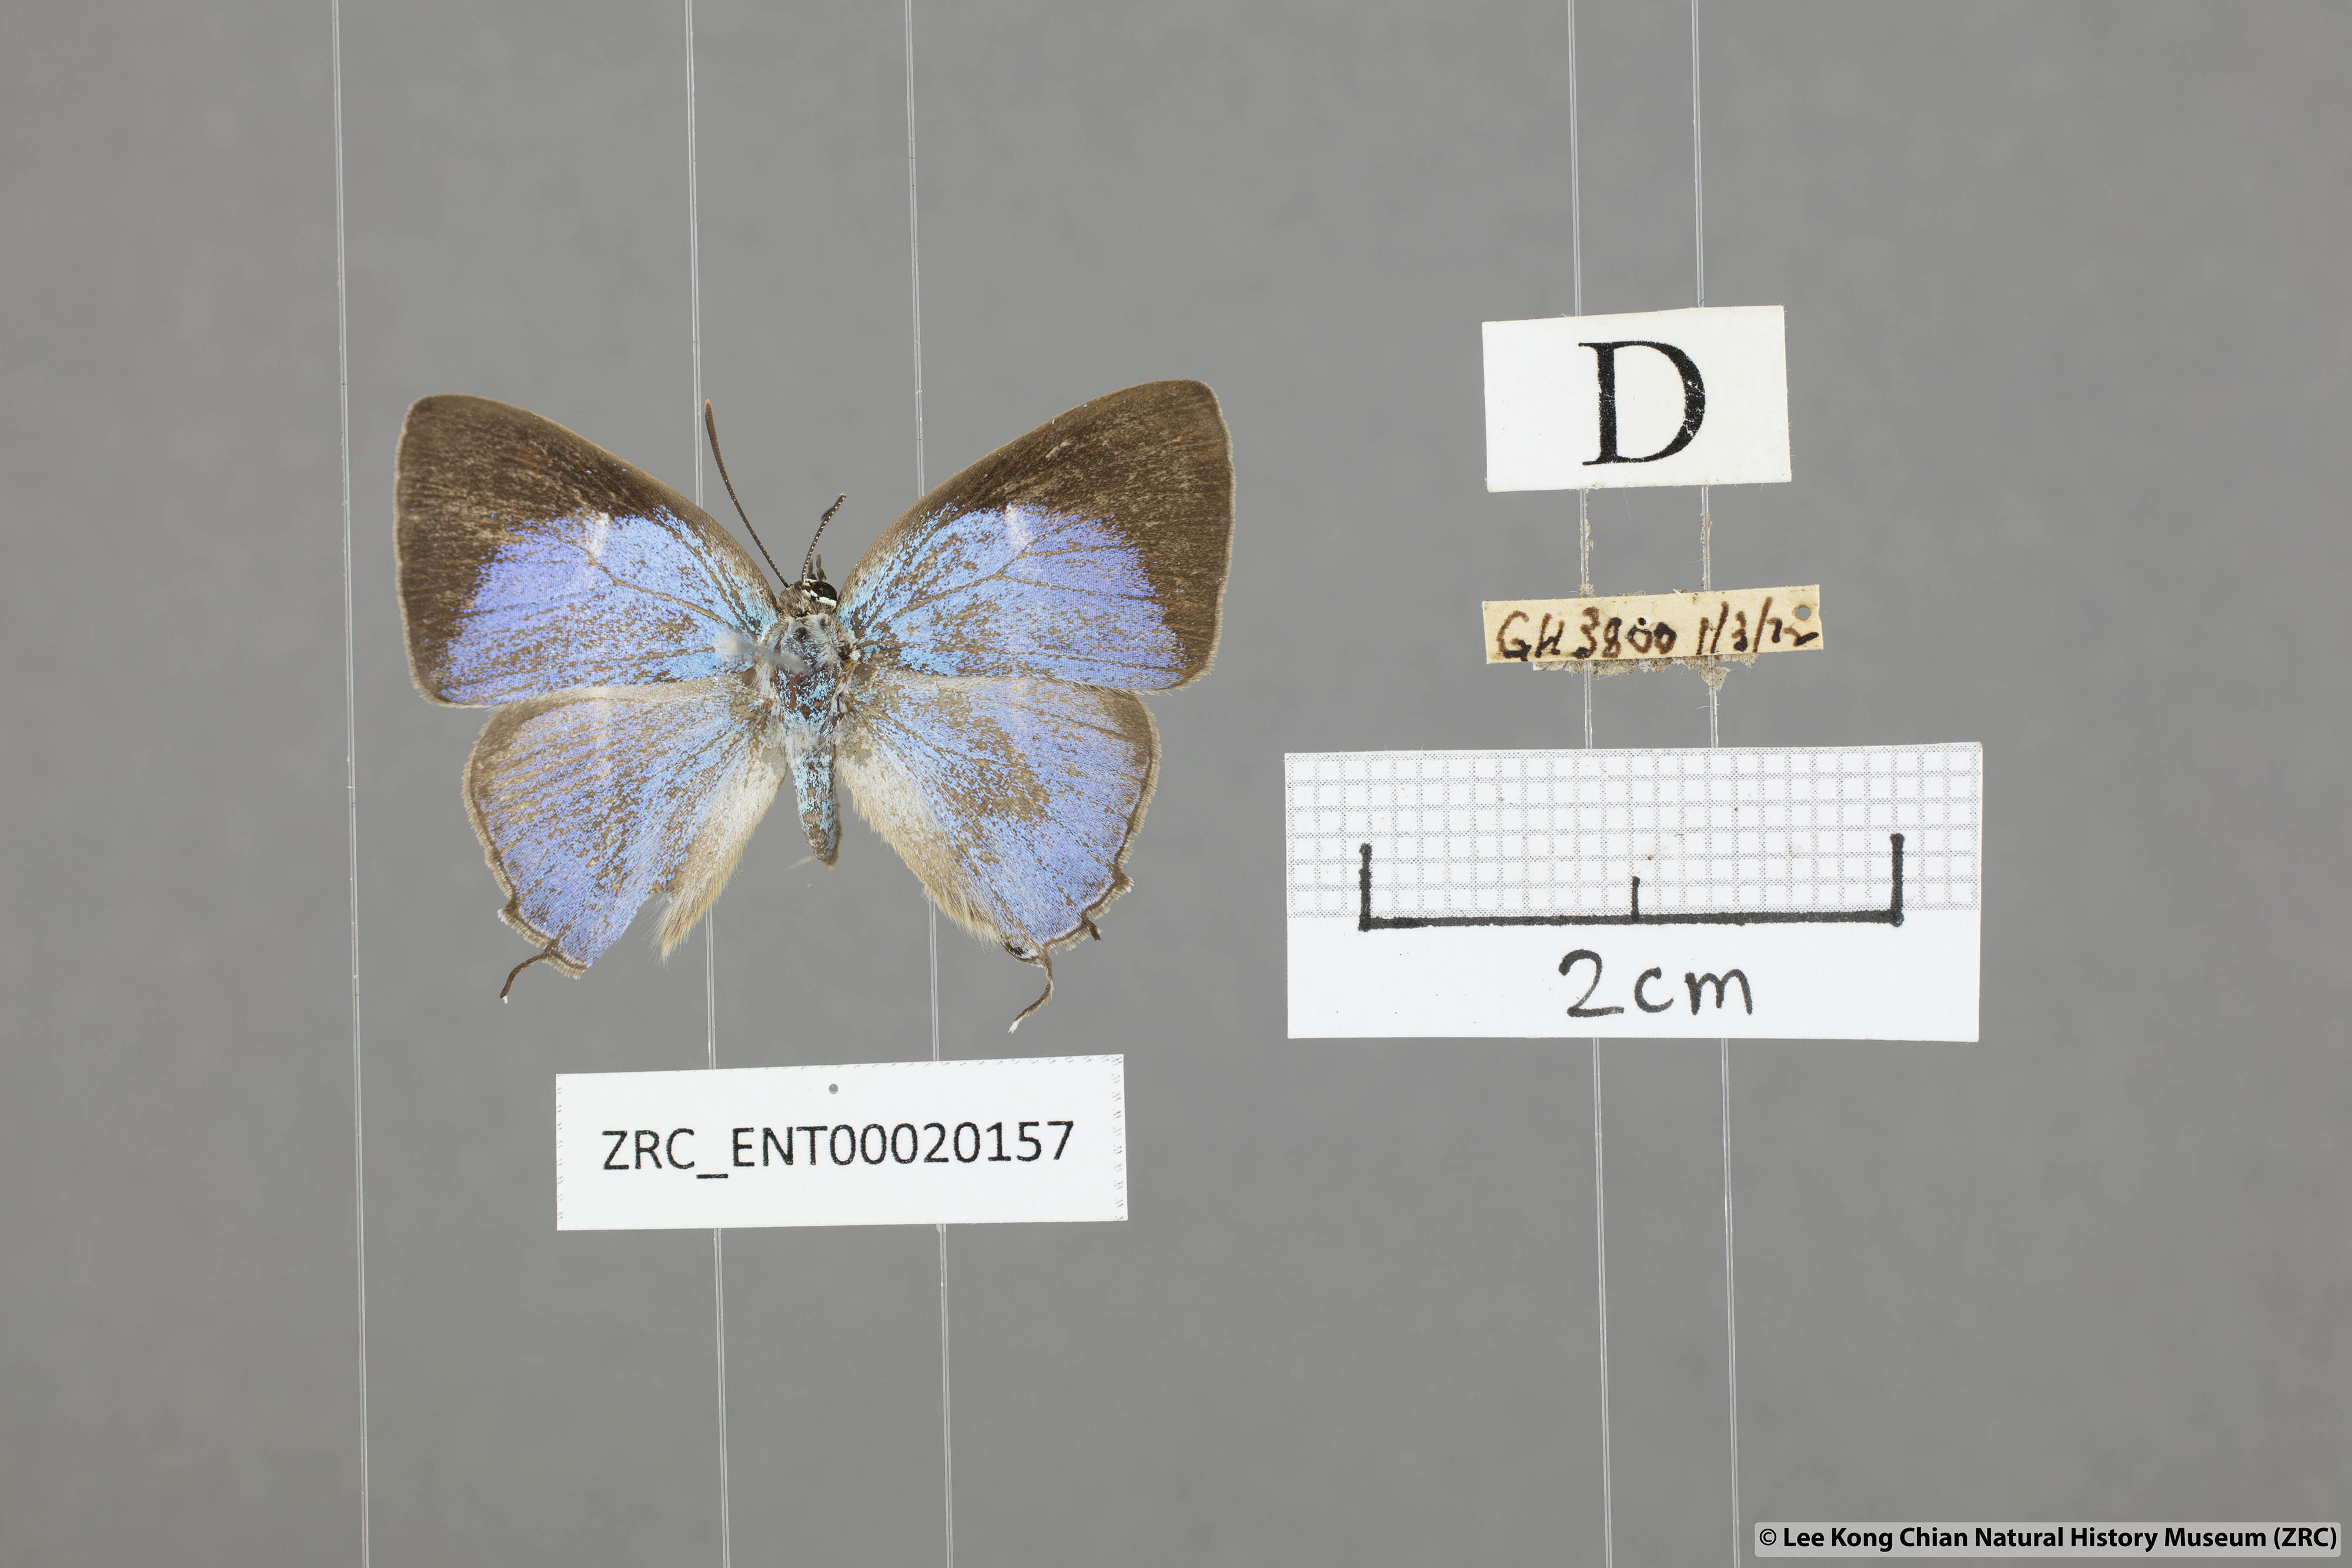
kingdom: Animalia
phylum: Arthropoda
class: Insecta
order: Lepidoptera
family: Lycaenidae
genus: Dacalana
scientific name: Dacalana
